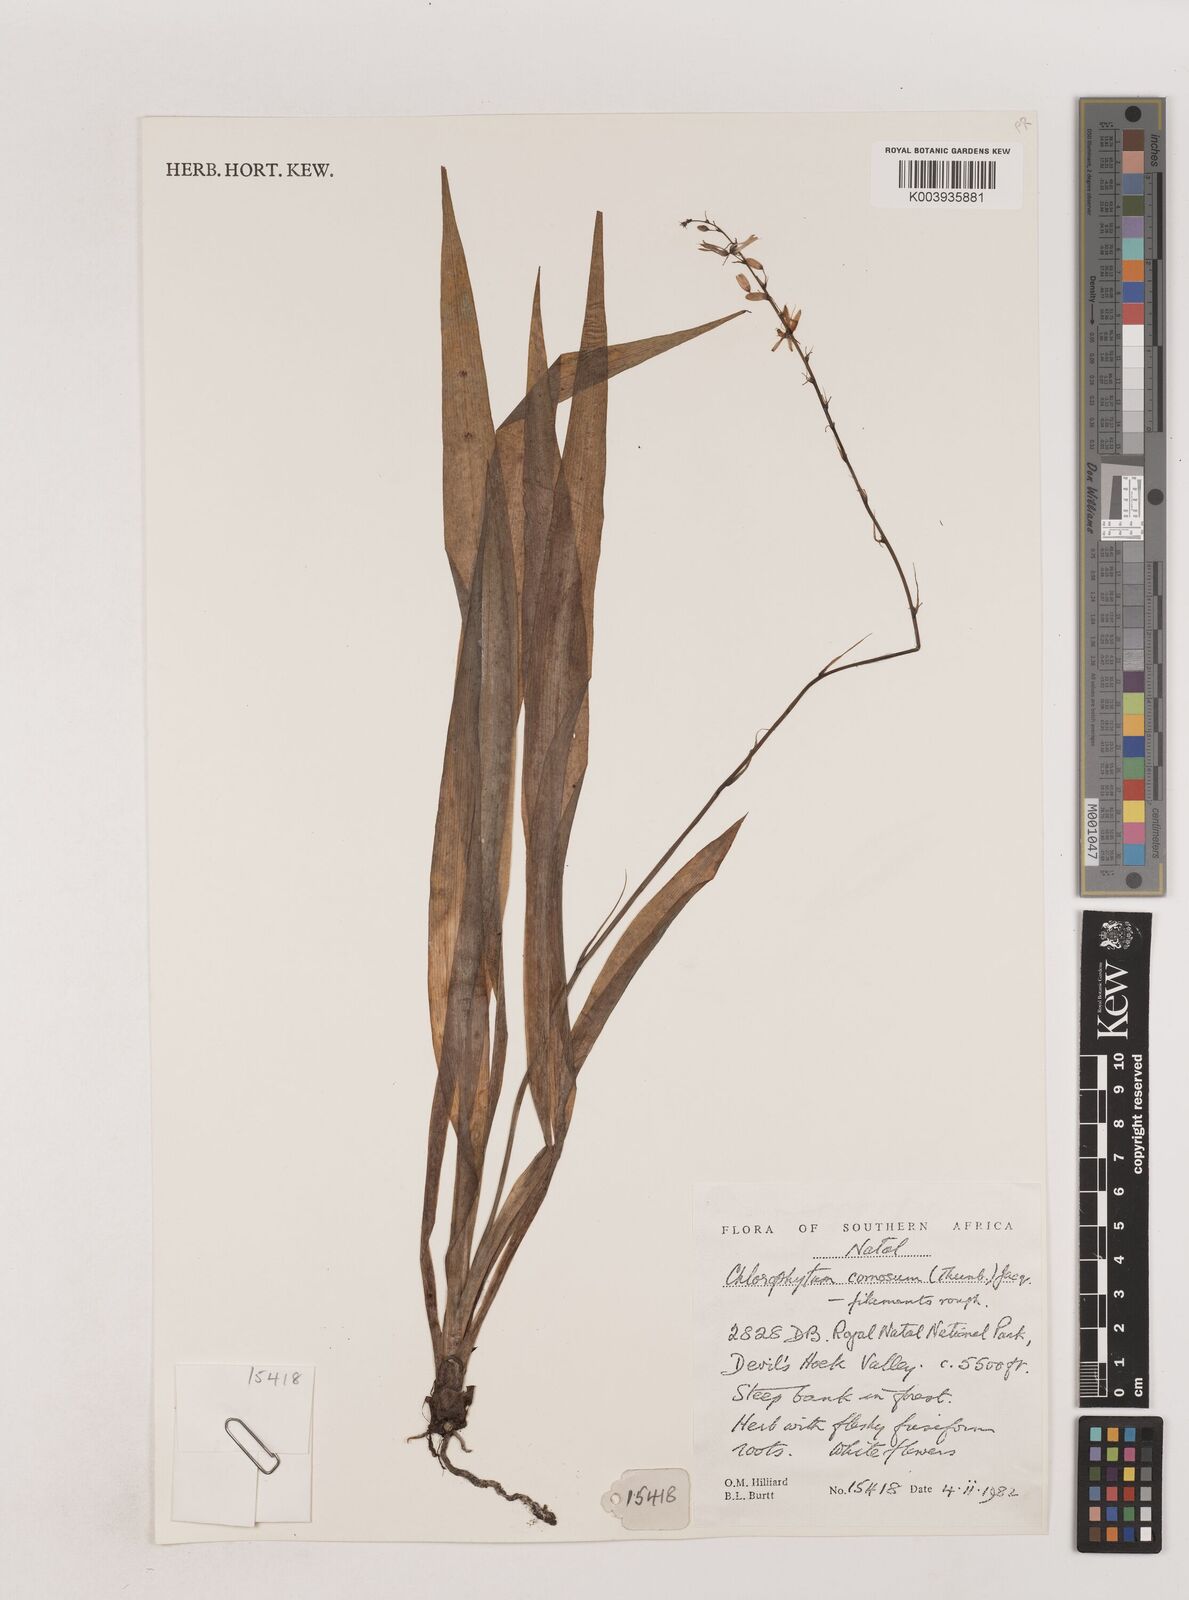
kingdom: Plantae
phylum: Tracheophyta
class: Liliopsida
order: Asparagales
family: Asparagaceae
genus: Chlorophytum
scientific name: Chlorophytum comosum
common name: Spider plant
